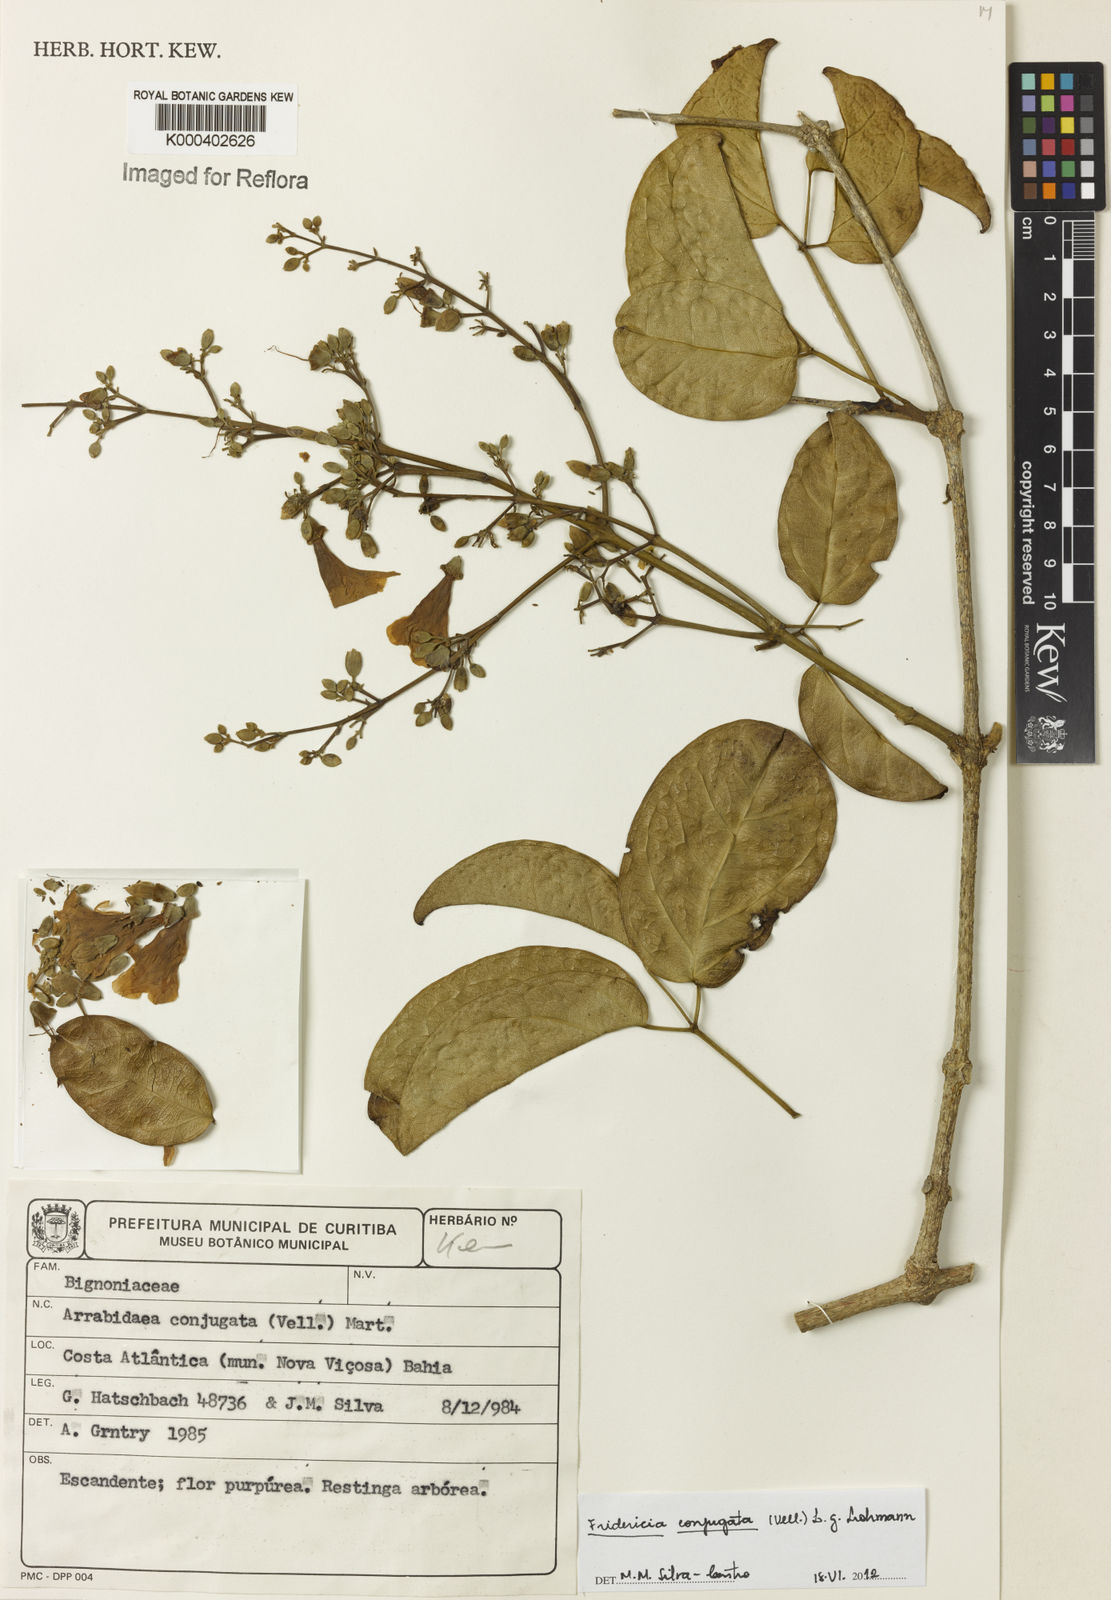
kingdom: Plantae
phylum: Tracheophyta
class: Magnoliopsida
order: Lamiales
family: Bignoniaceae
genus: Fridericia
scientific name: Fridericia conjugata
